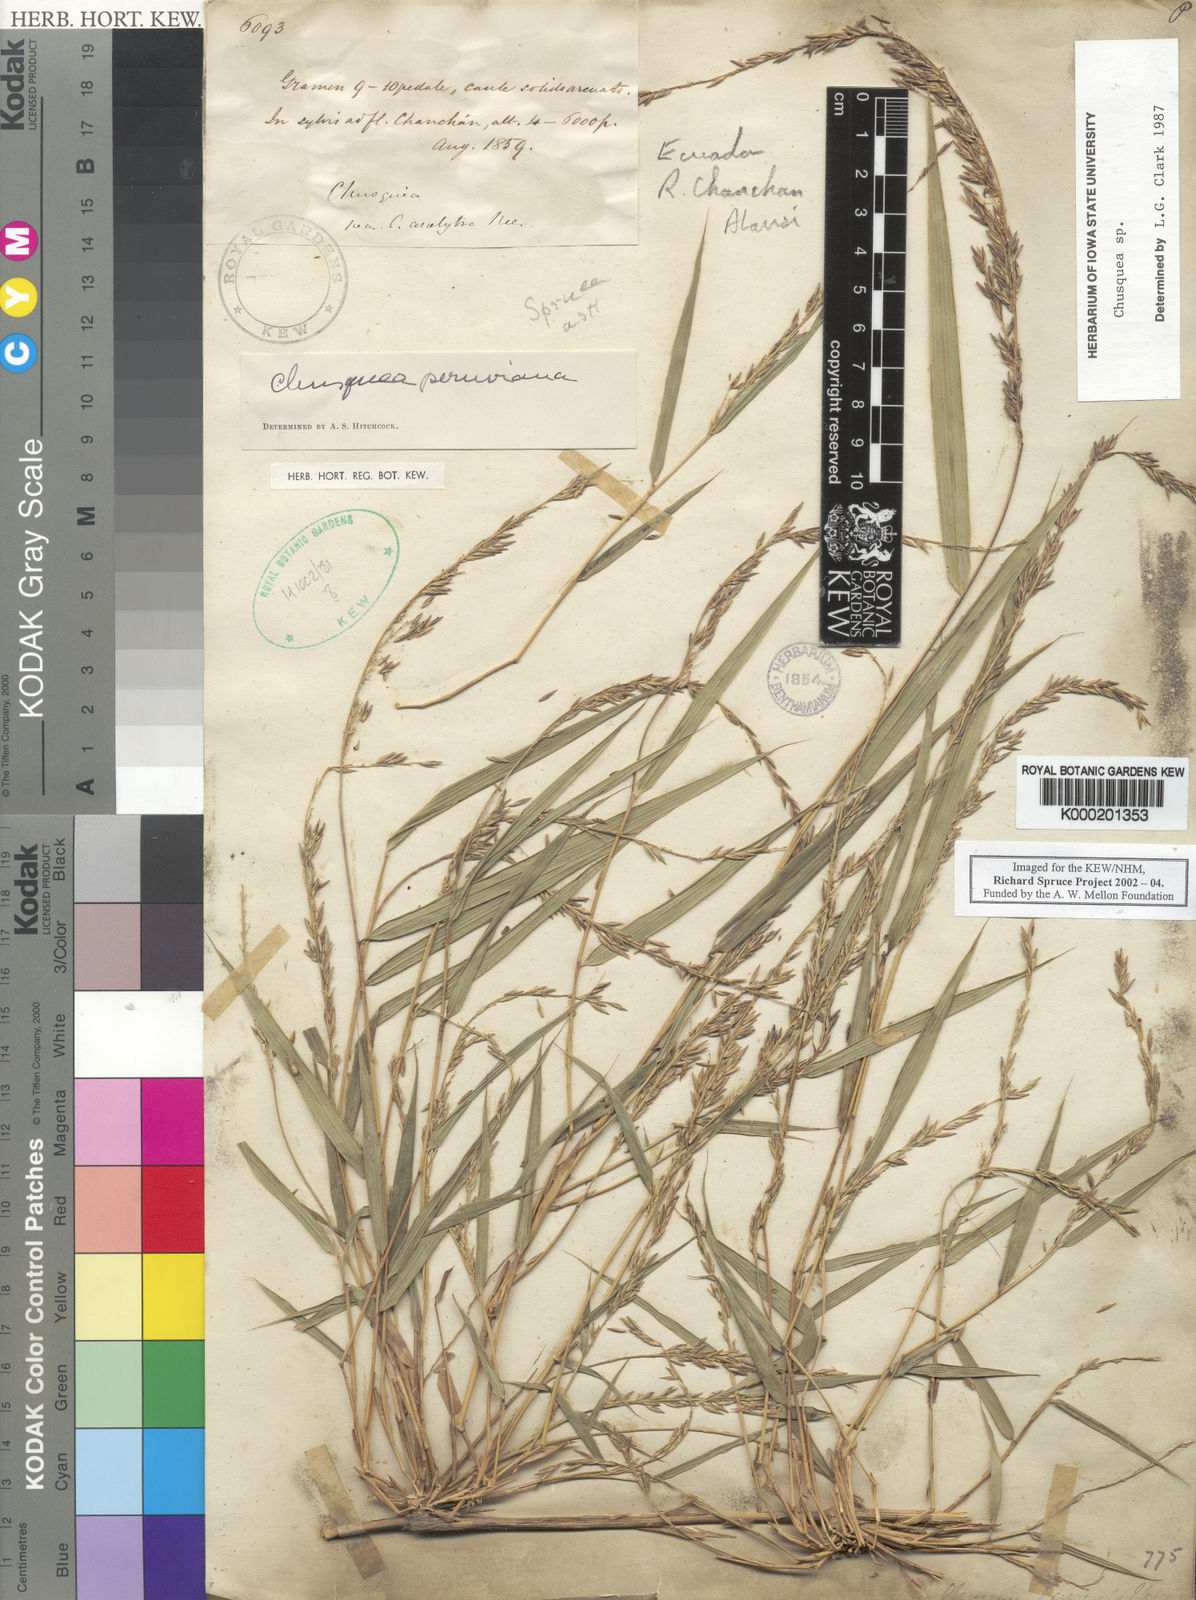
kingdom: Plantae
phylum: Tracheophyta
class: Liliopsida
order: Poales
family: Poaceae
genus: Chusquea
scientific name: Chusquea
